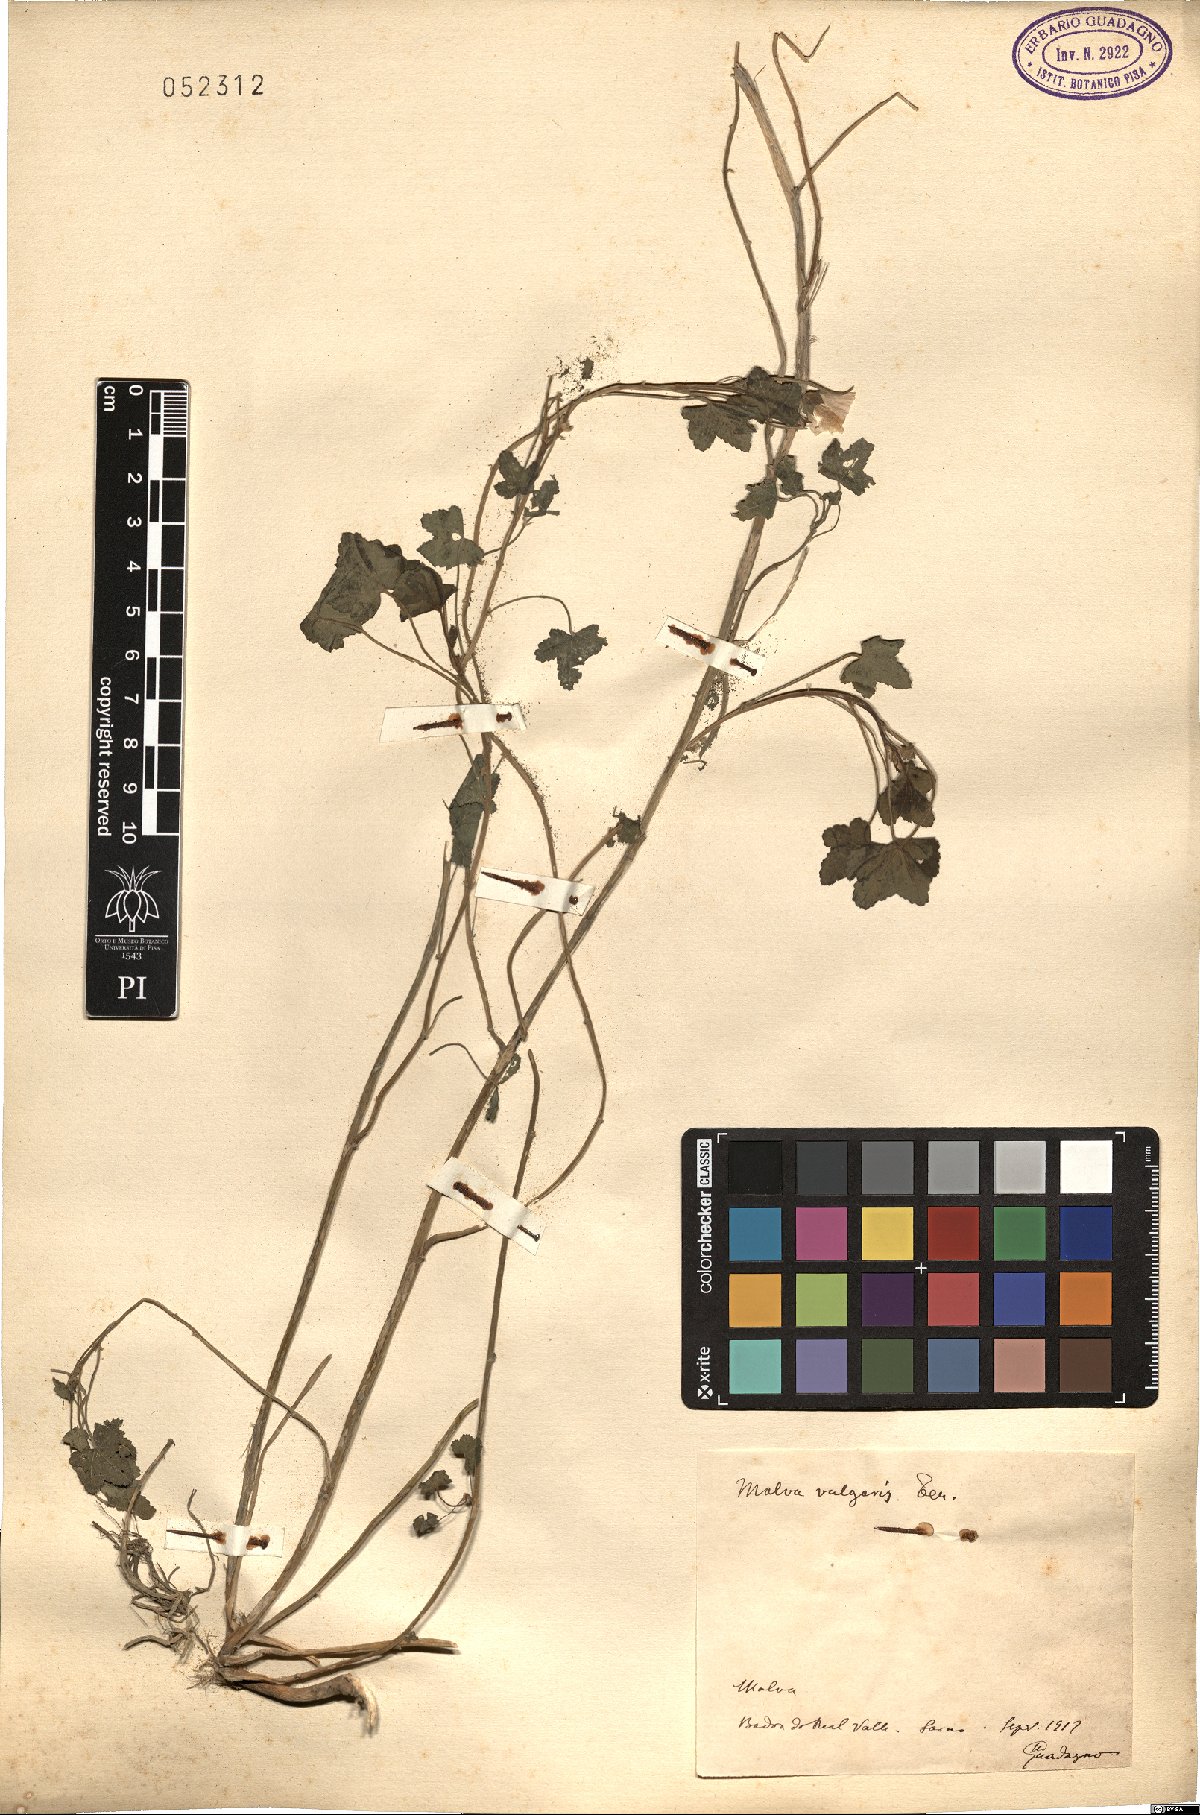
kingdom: Plantae
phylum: Tracheophyta
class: Magnoliopsida
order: Malvales
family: Malvaceae
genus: Malva
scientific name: Malva neglecta
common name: Common mallow
